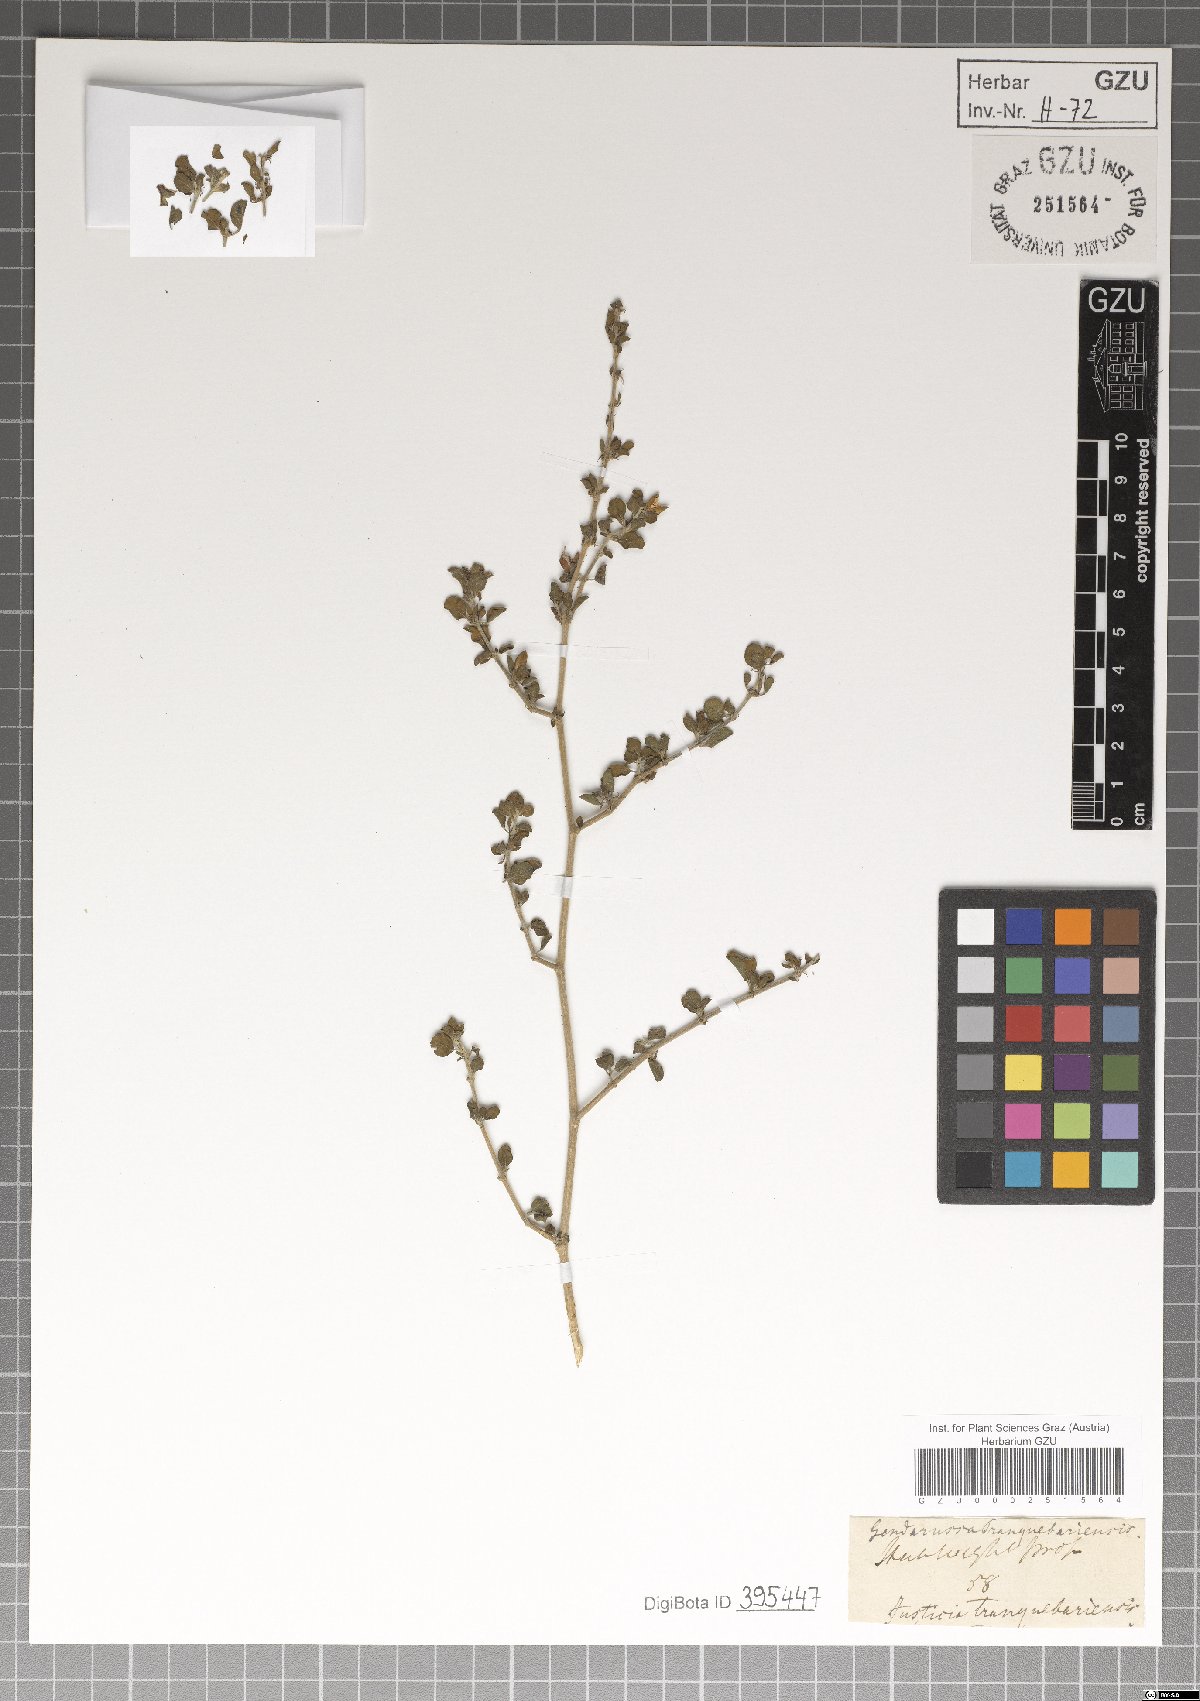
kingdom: Plantae
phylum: Tracheophyta
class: Magnoliopsida
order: Lamiales
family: Acanthaceae
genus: Justicia
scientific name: Justicia tranquebariensis
